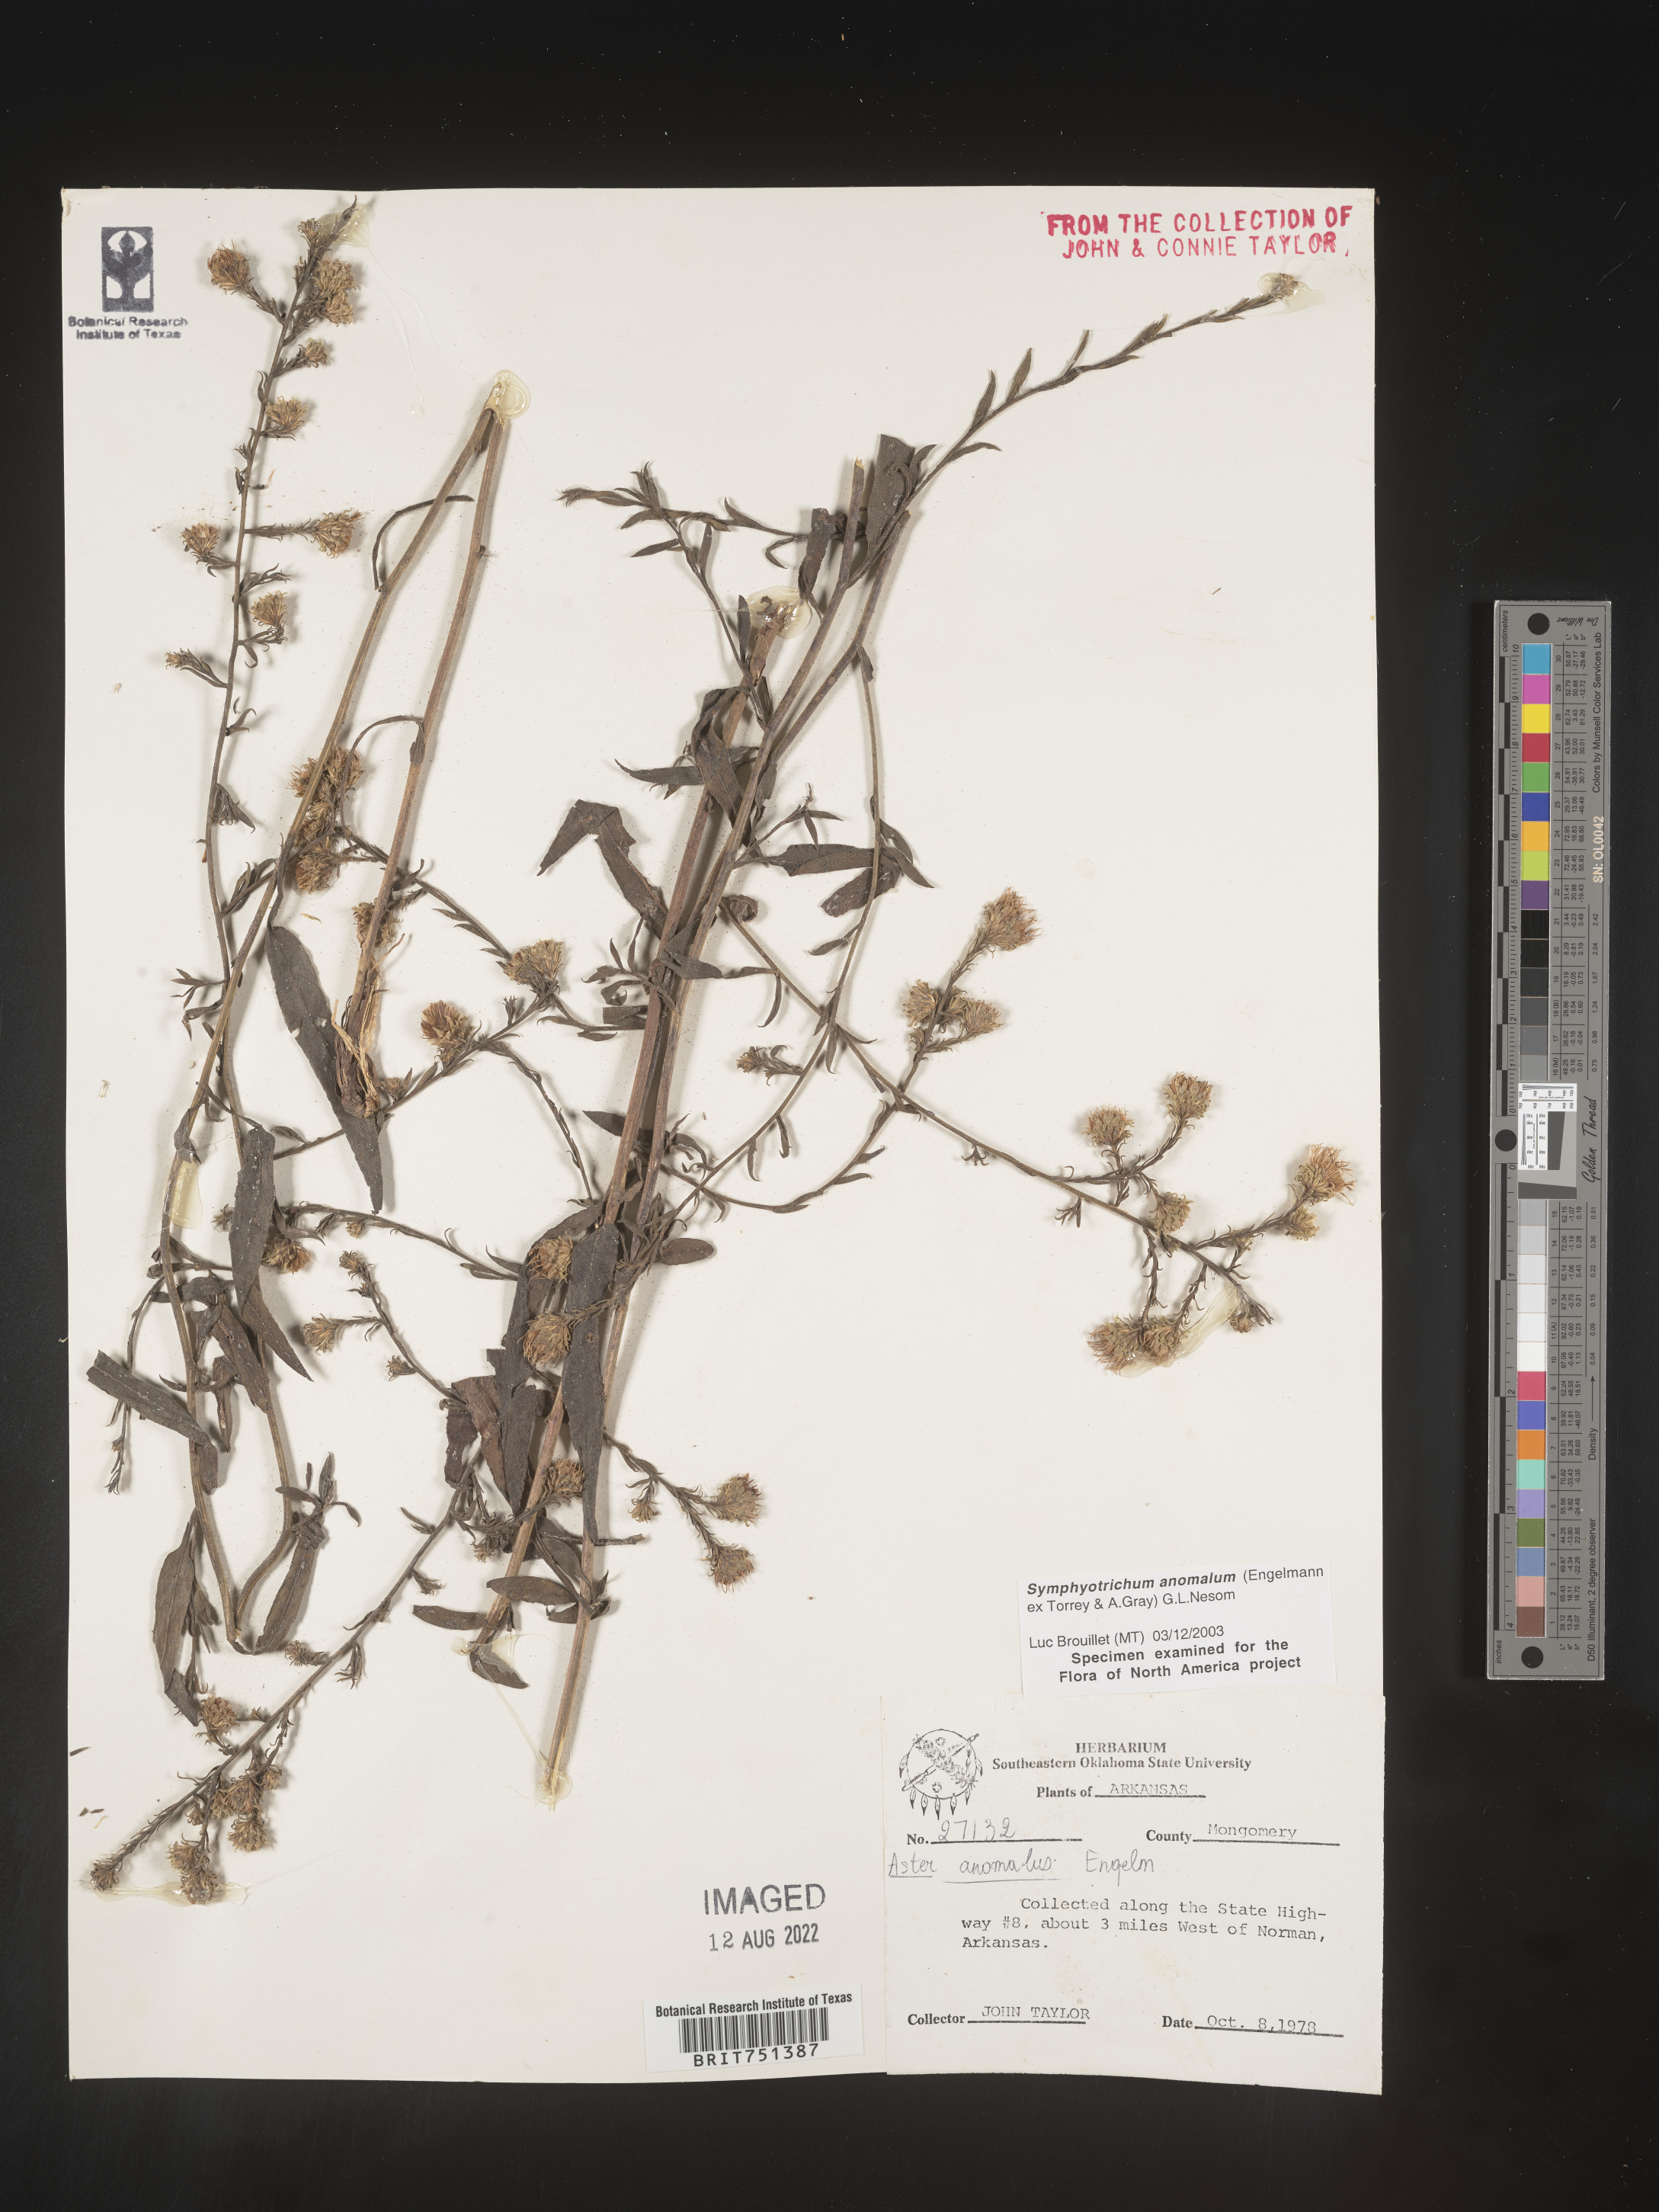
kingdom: Plantae
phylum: Tracheophyta
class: Magnoliopsida
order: Asterales
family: Asteraceae
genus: Symphyotrichum
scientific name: Symphyotrichum anomalum
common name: Many-ray aster
